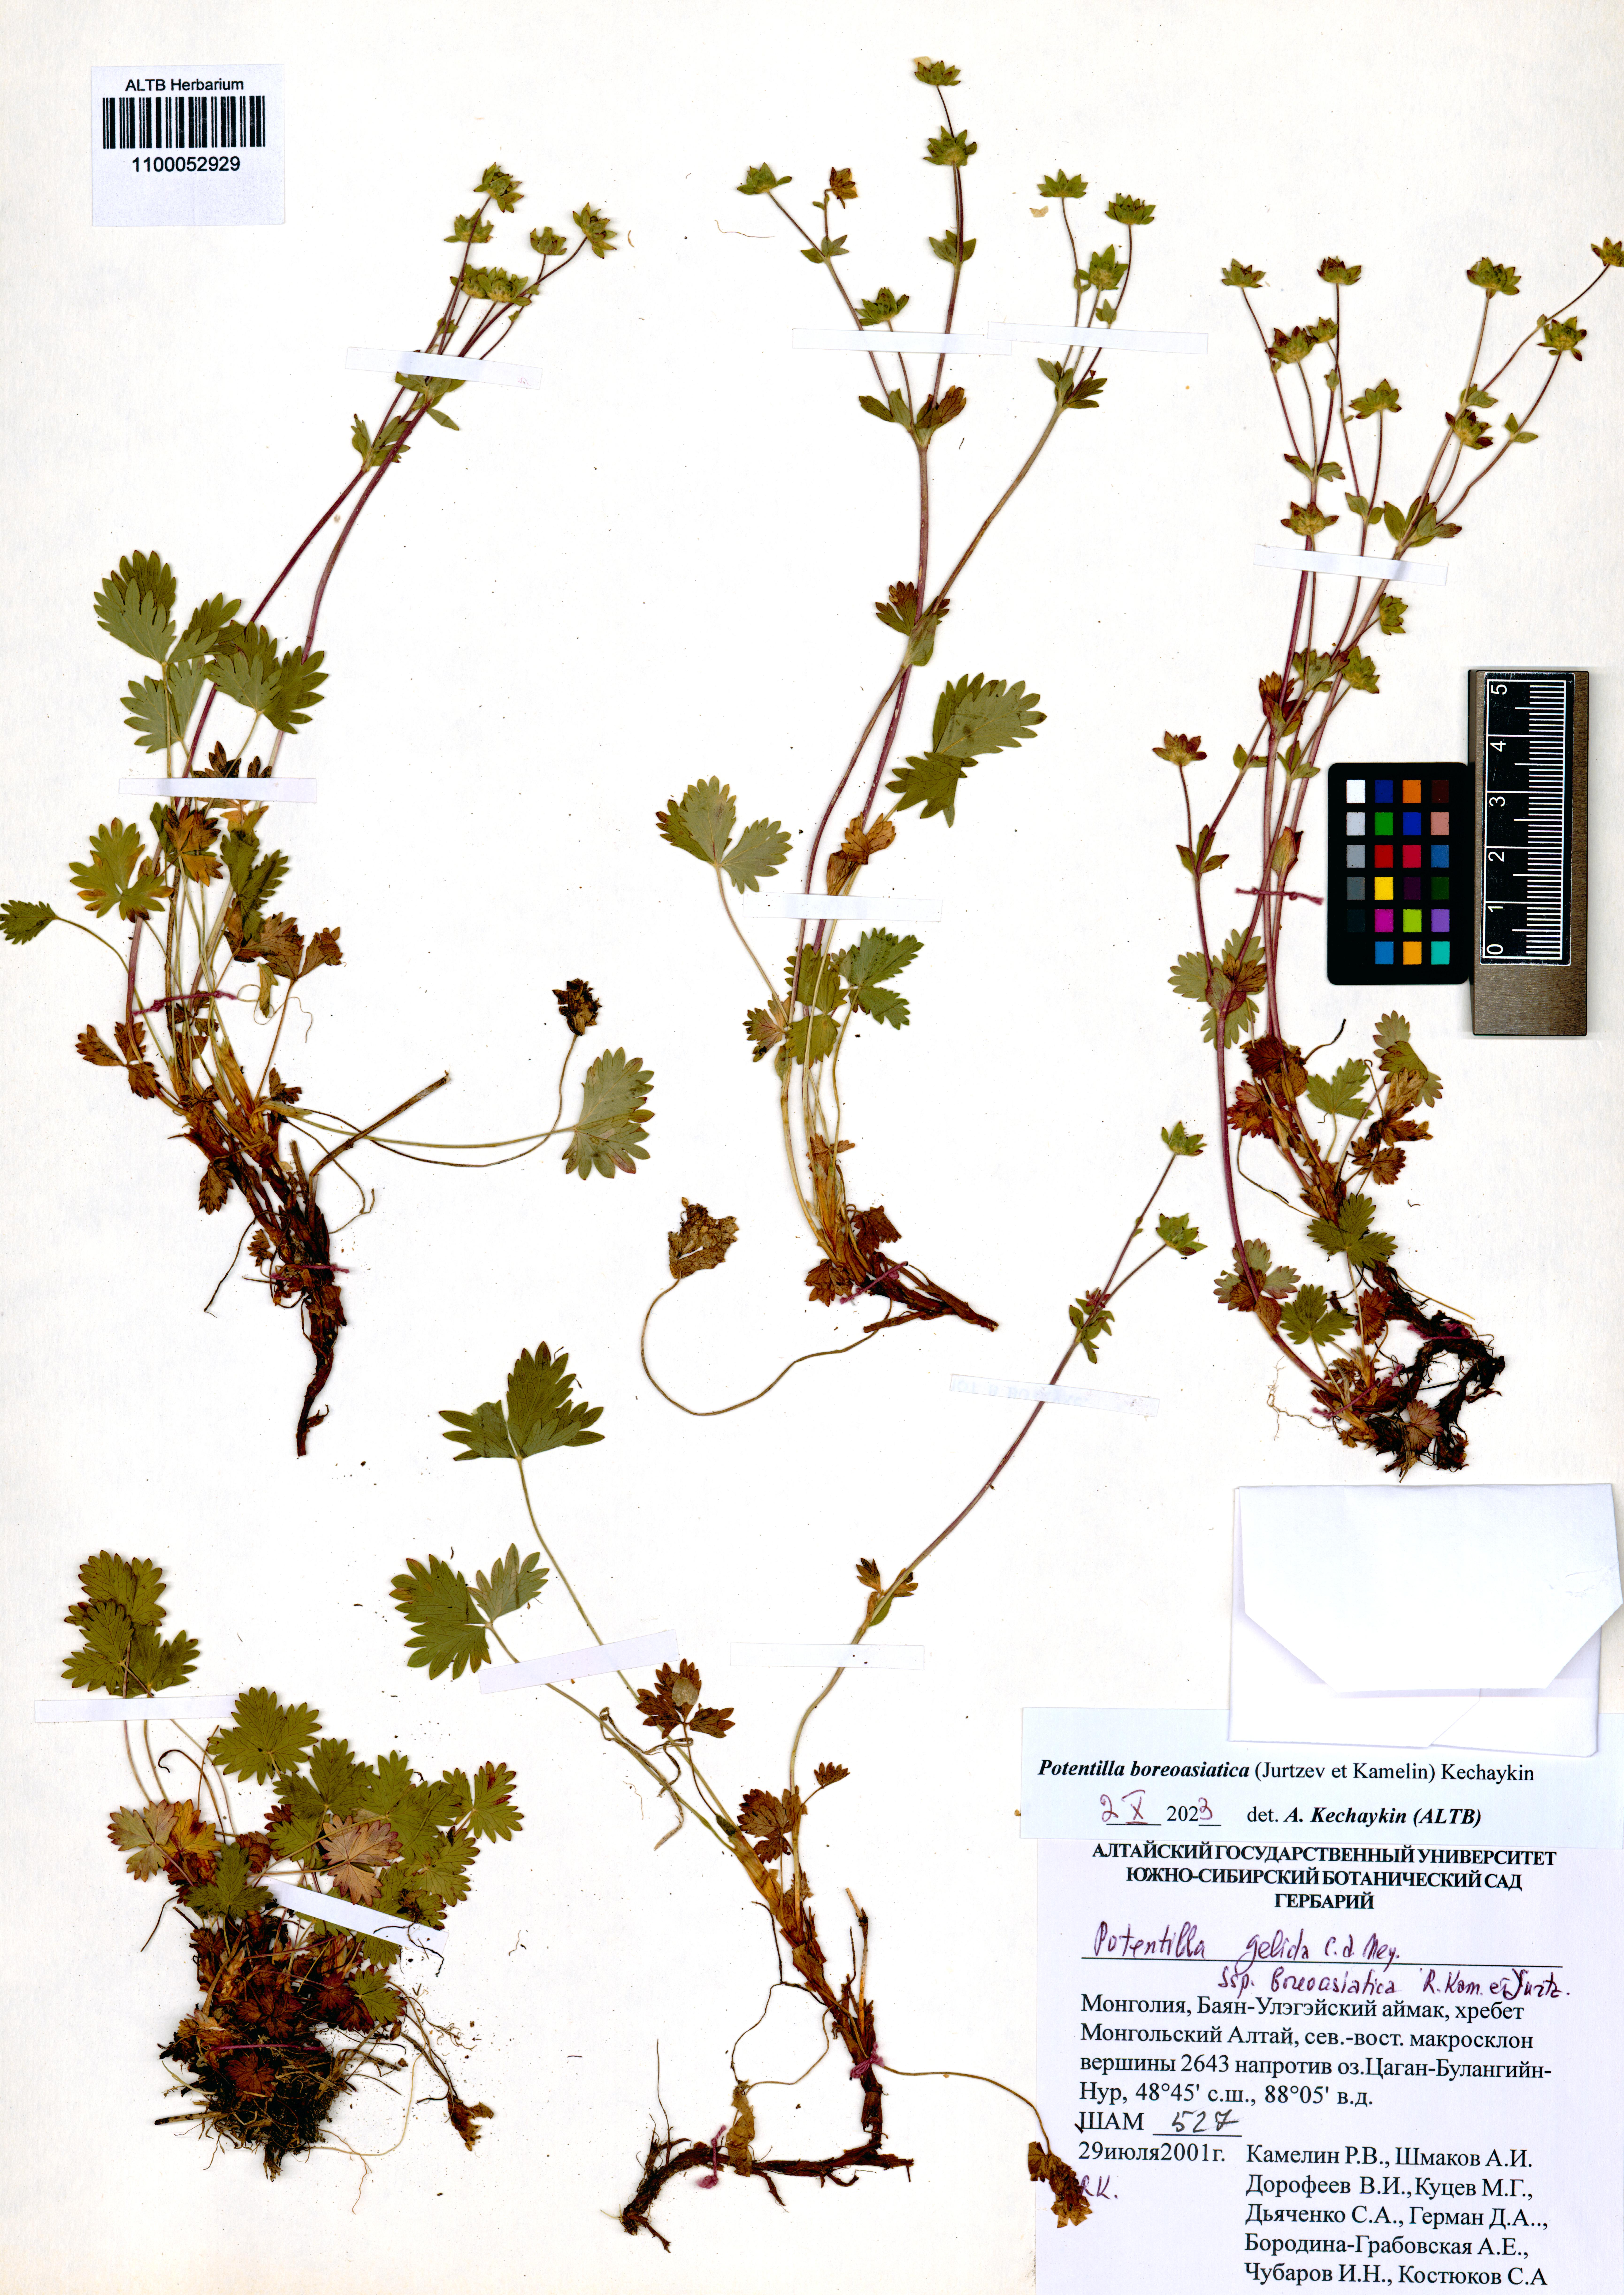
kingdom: Plantae
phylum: Tracheophyta
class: Magnoliopsida
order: Rosales
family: Rosaceae
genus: Potentilla
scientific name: Potentilla
